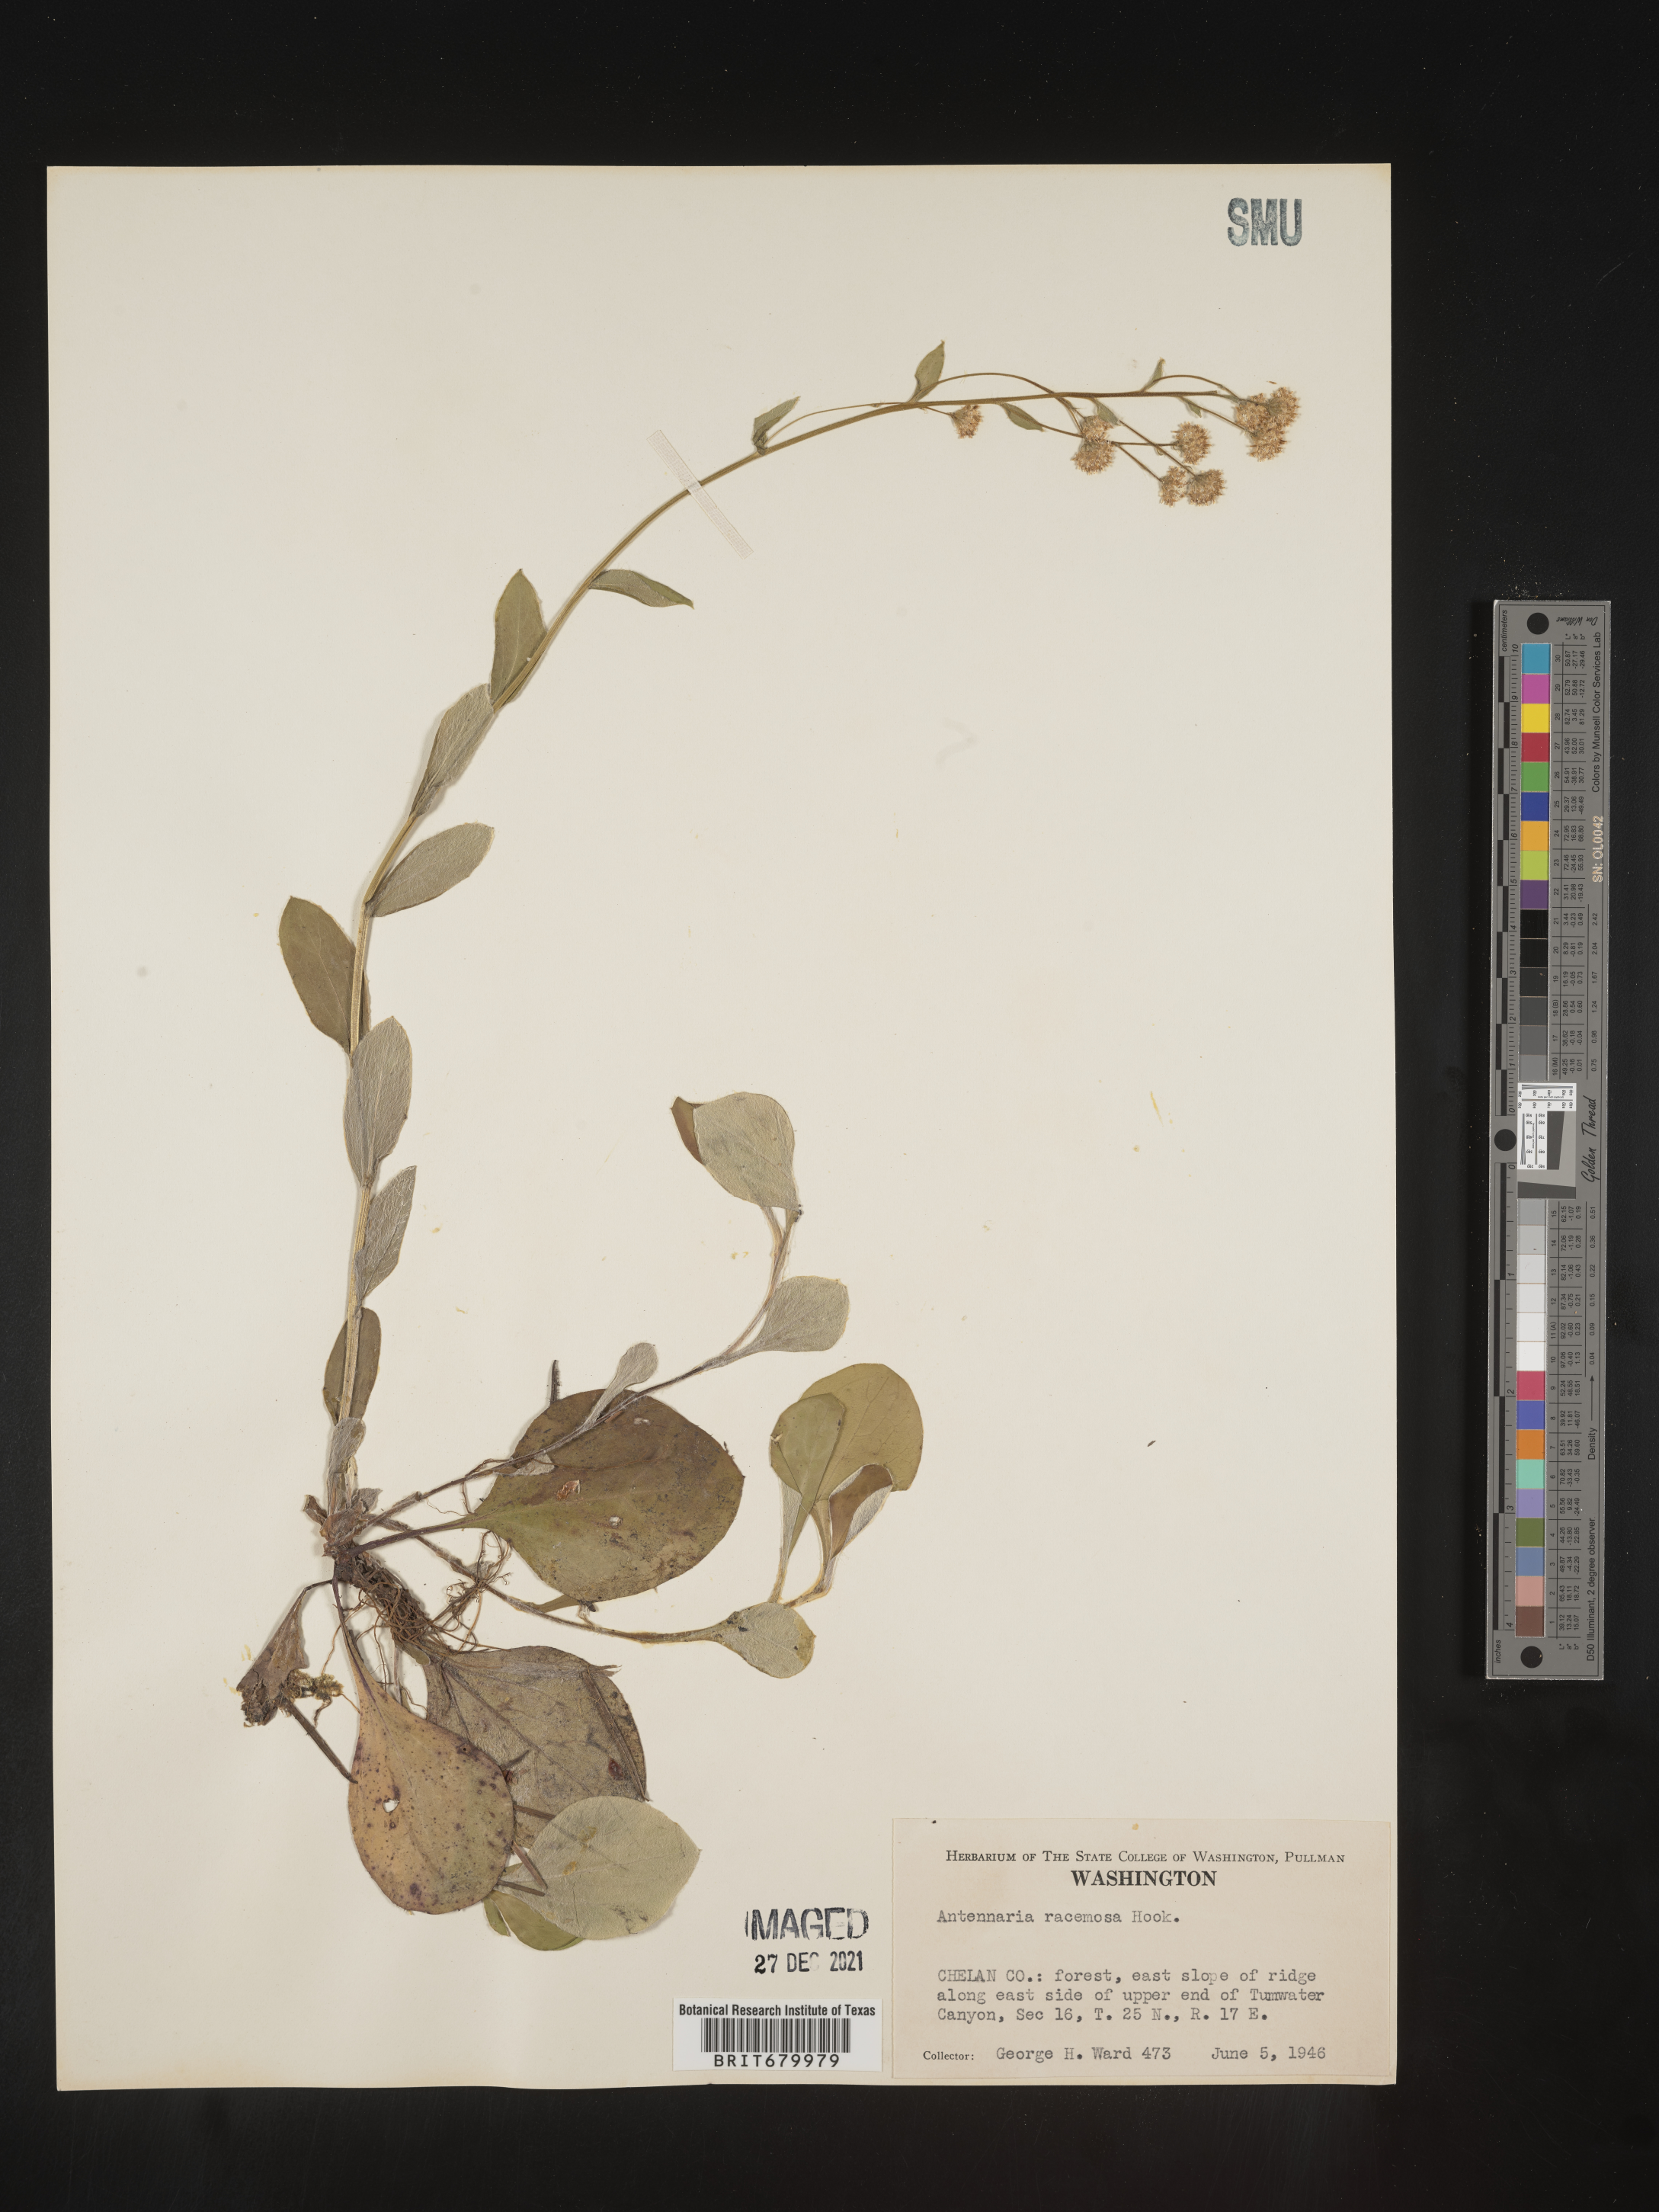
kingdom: Plantae
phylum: Tracheophyta
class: Magnoliopsida
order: Asterales
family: Asteraceae
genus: Antennaria
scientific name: Antennaria racemosa
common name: Racemose pussytoes
